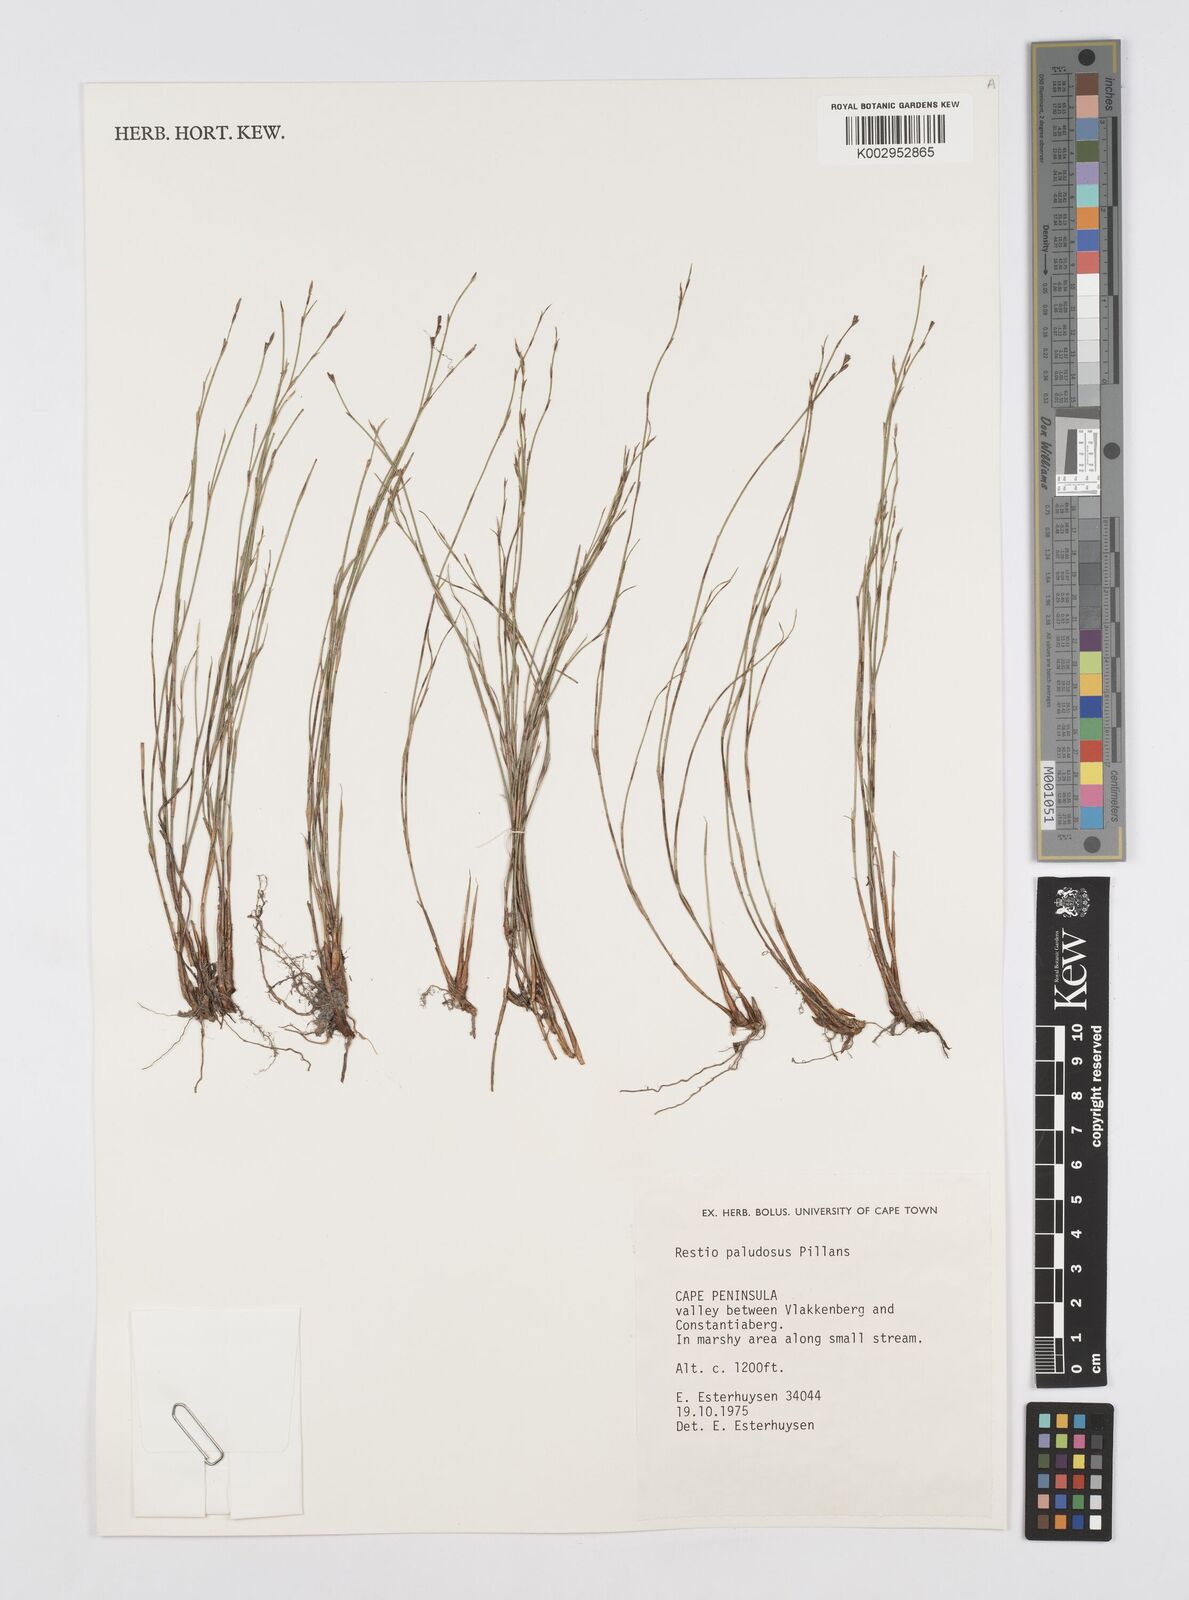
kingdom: Plantae
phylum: Tracheophyta
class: Liliopsida
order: Poales
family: Restionaceae
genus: Restio
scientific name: Restio paludosus
